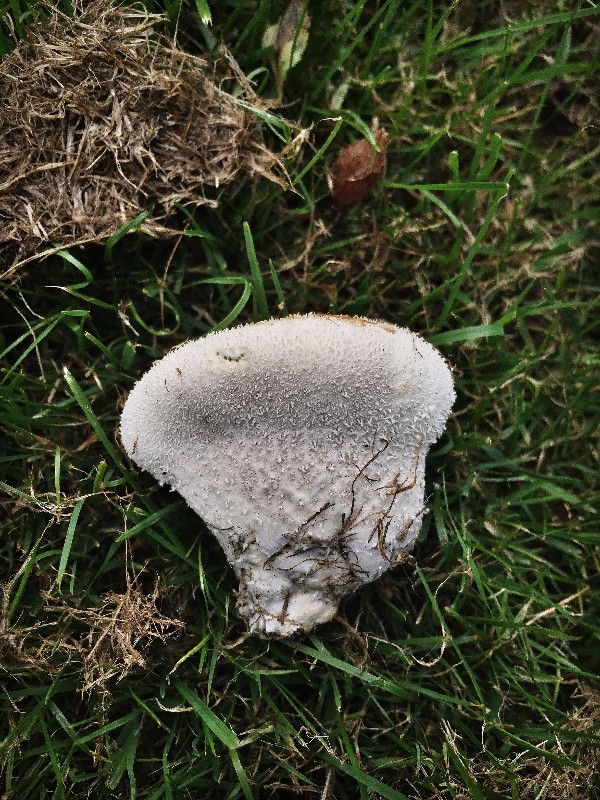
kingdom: Fungi
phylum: Basidiomycota
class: Agaricomycetes
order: Agaricales
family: Lycoperdaceae
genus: Lycoperdon
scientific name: Lycoperdon perlatum
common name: krystal-støvbold
